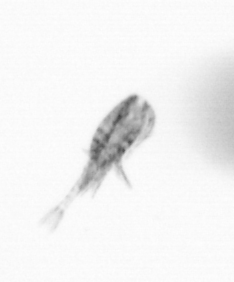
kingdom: Animalia
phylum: Arthropoda
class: Copepoda
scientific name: Copepoda
